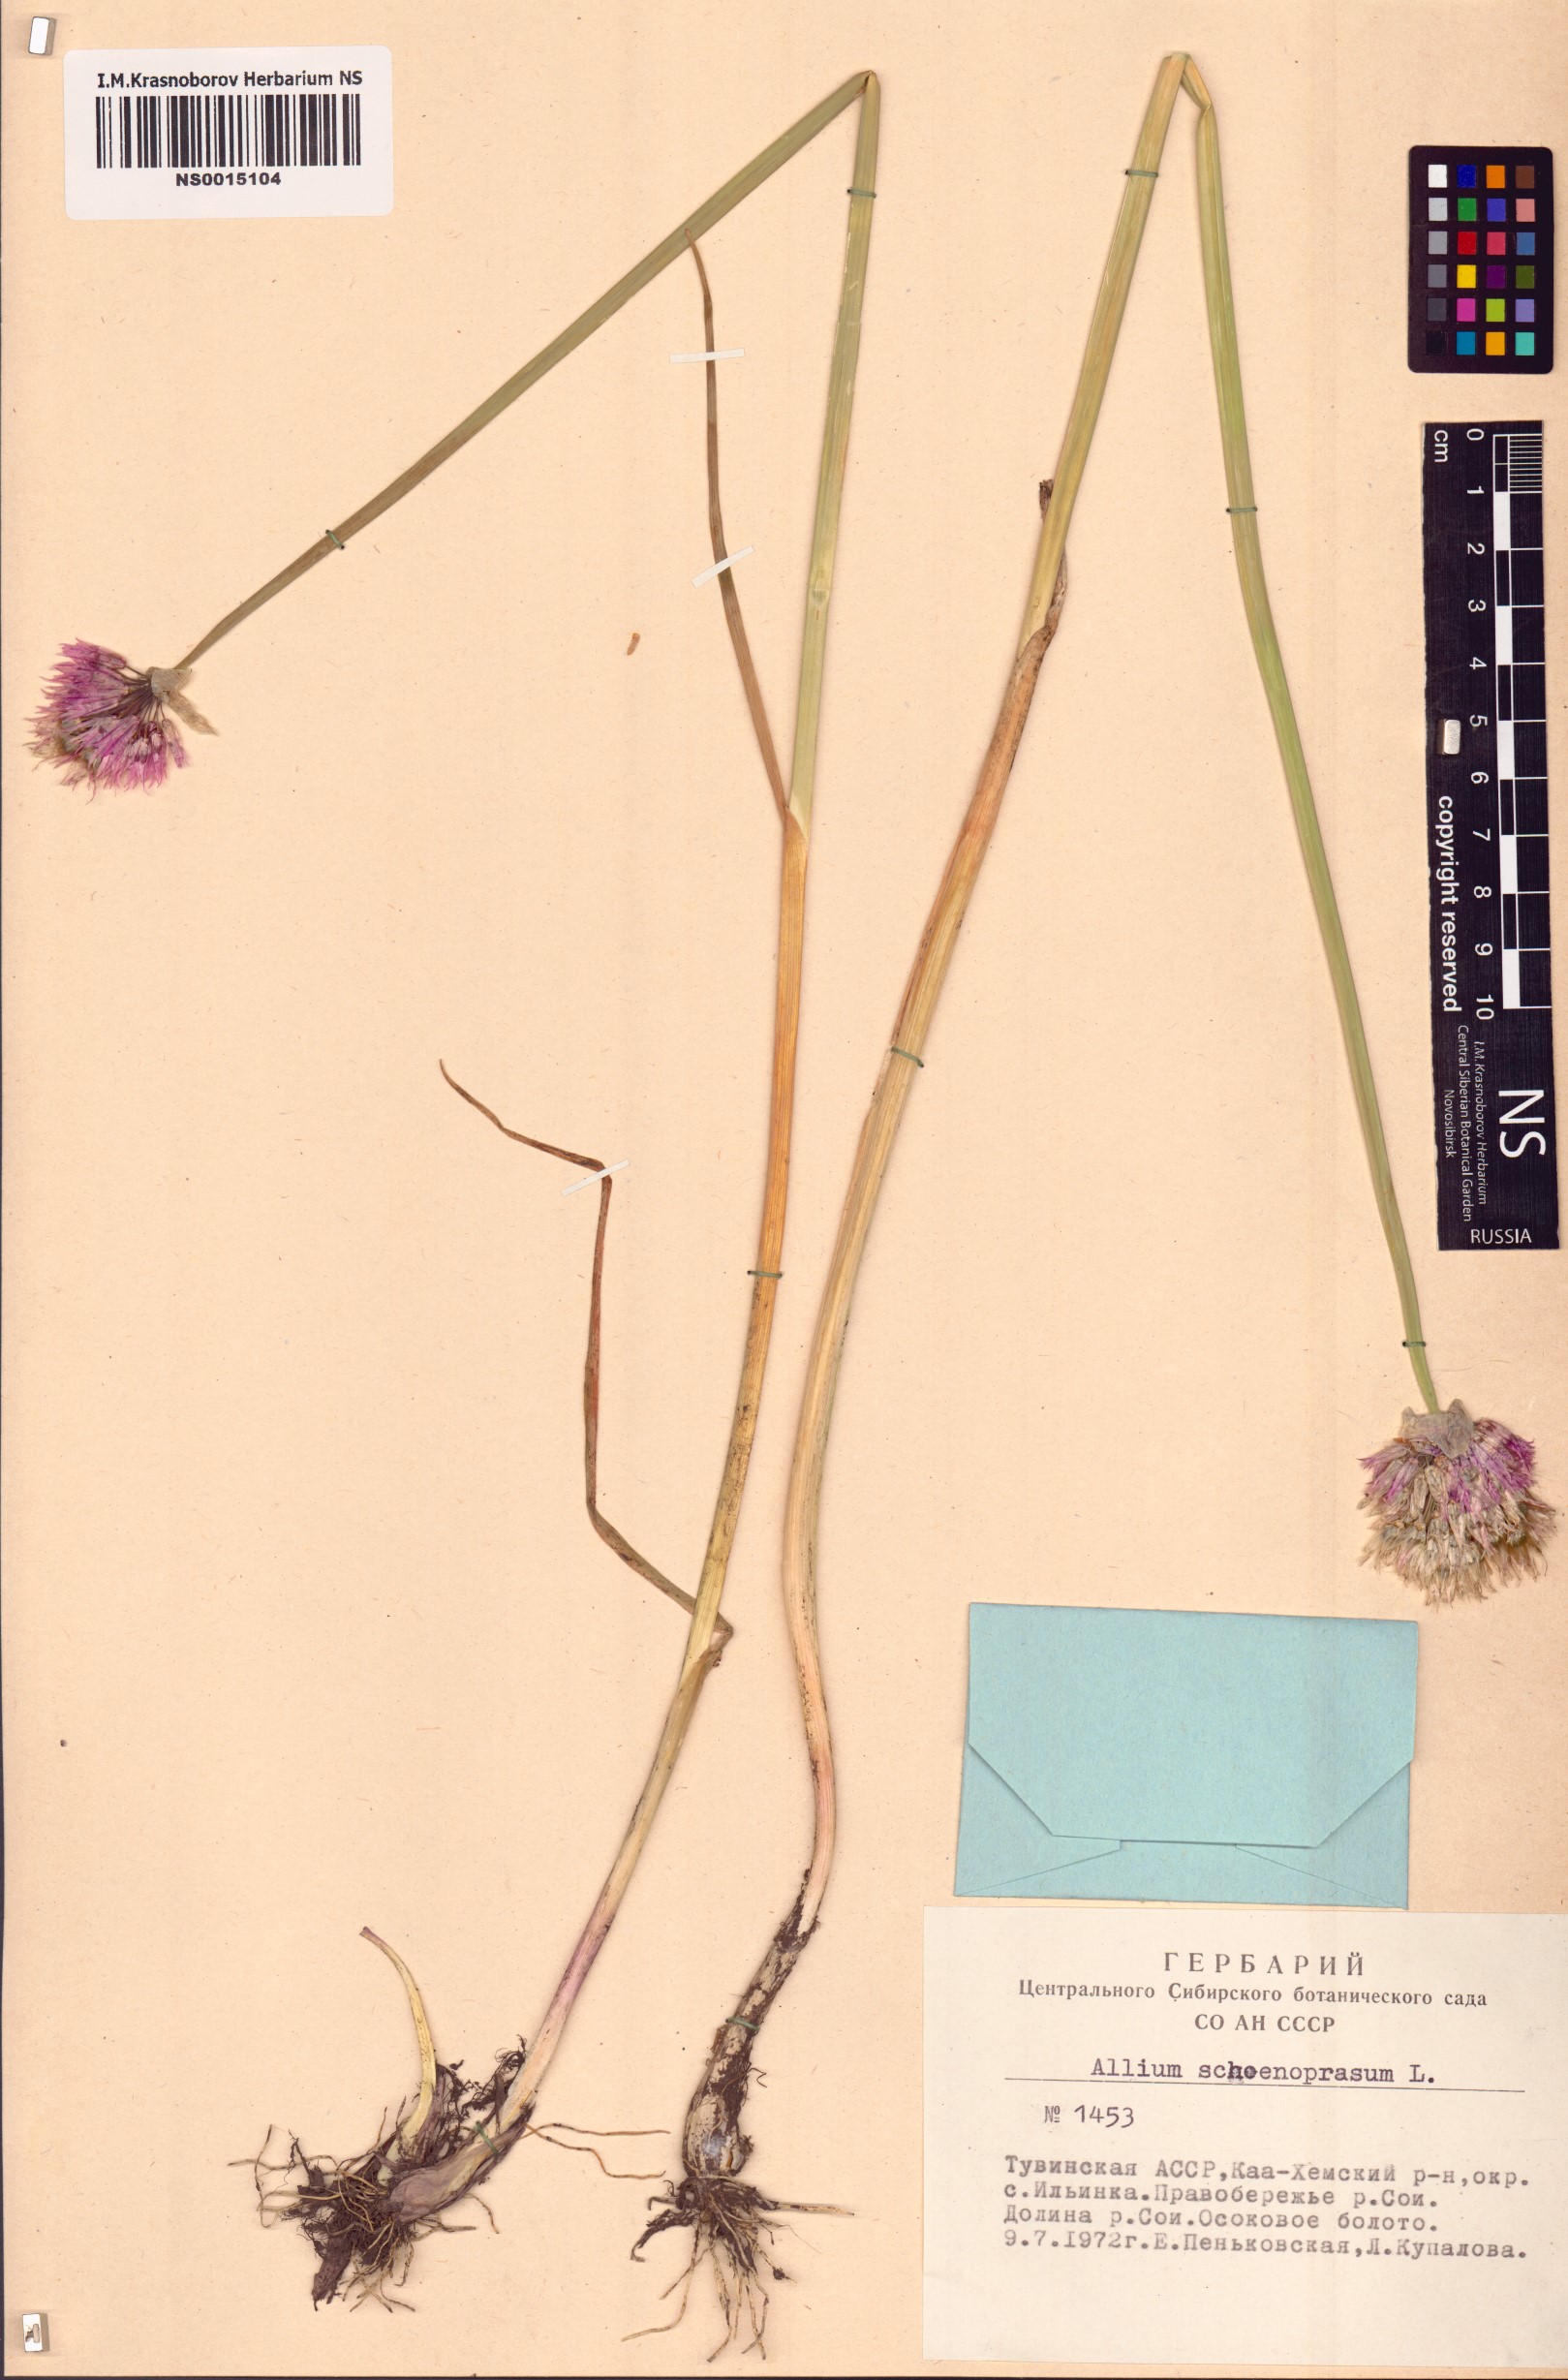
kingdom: Plantae
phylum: Tracheophyta
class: Liliopsida
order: Asparagales
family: Amaryllidaceae
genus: Allium
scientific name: Allium schoenoprasum
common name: Chives
